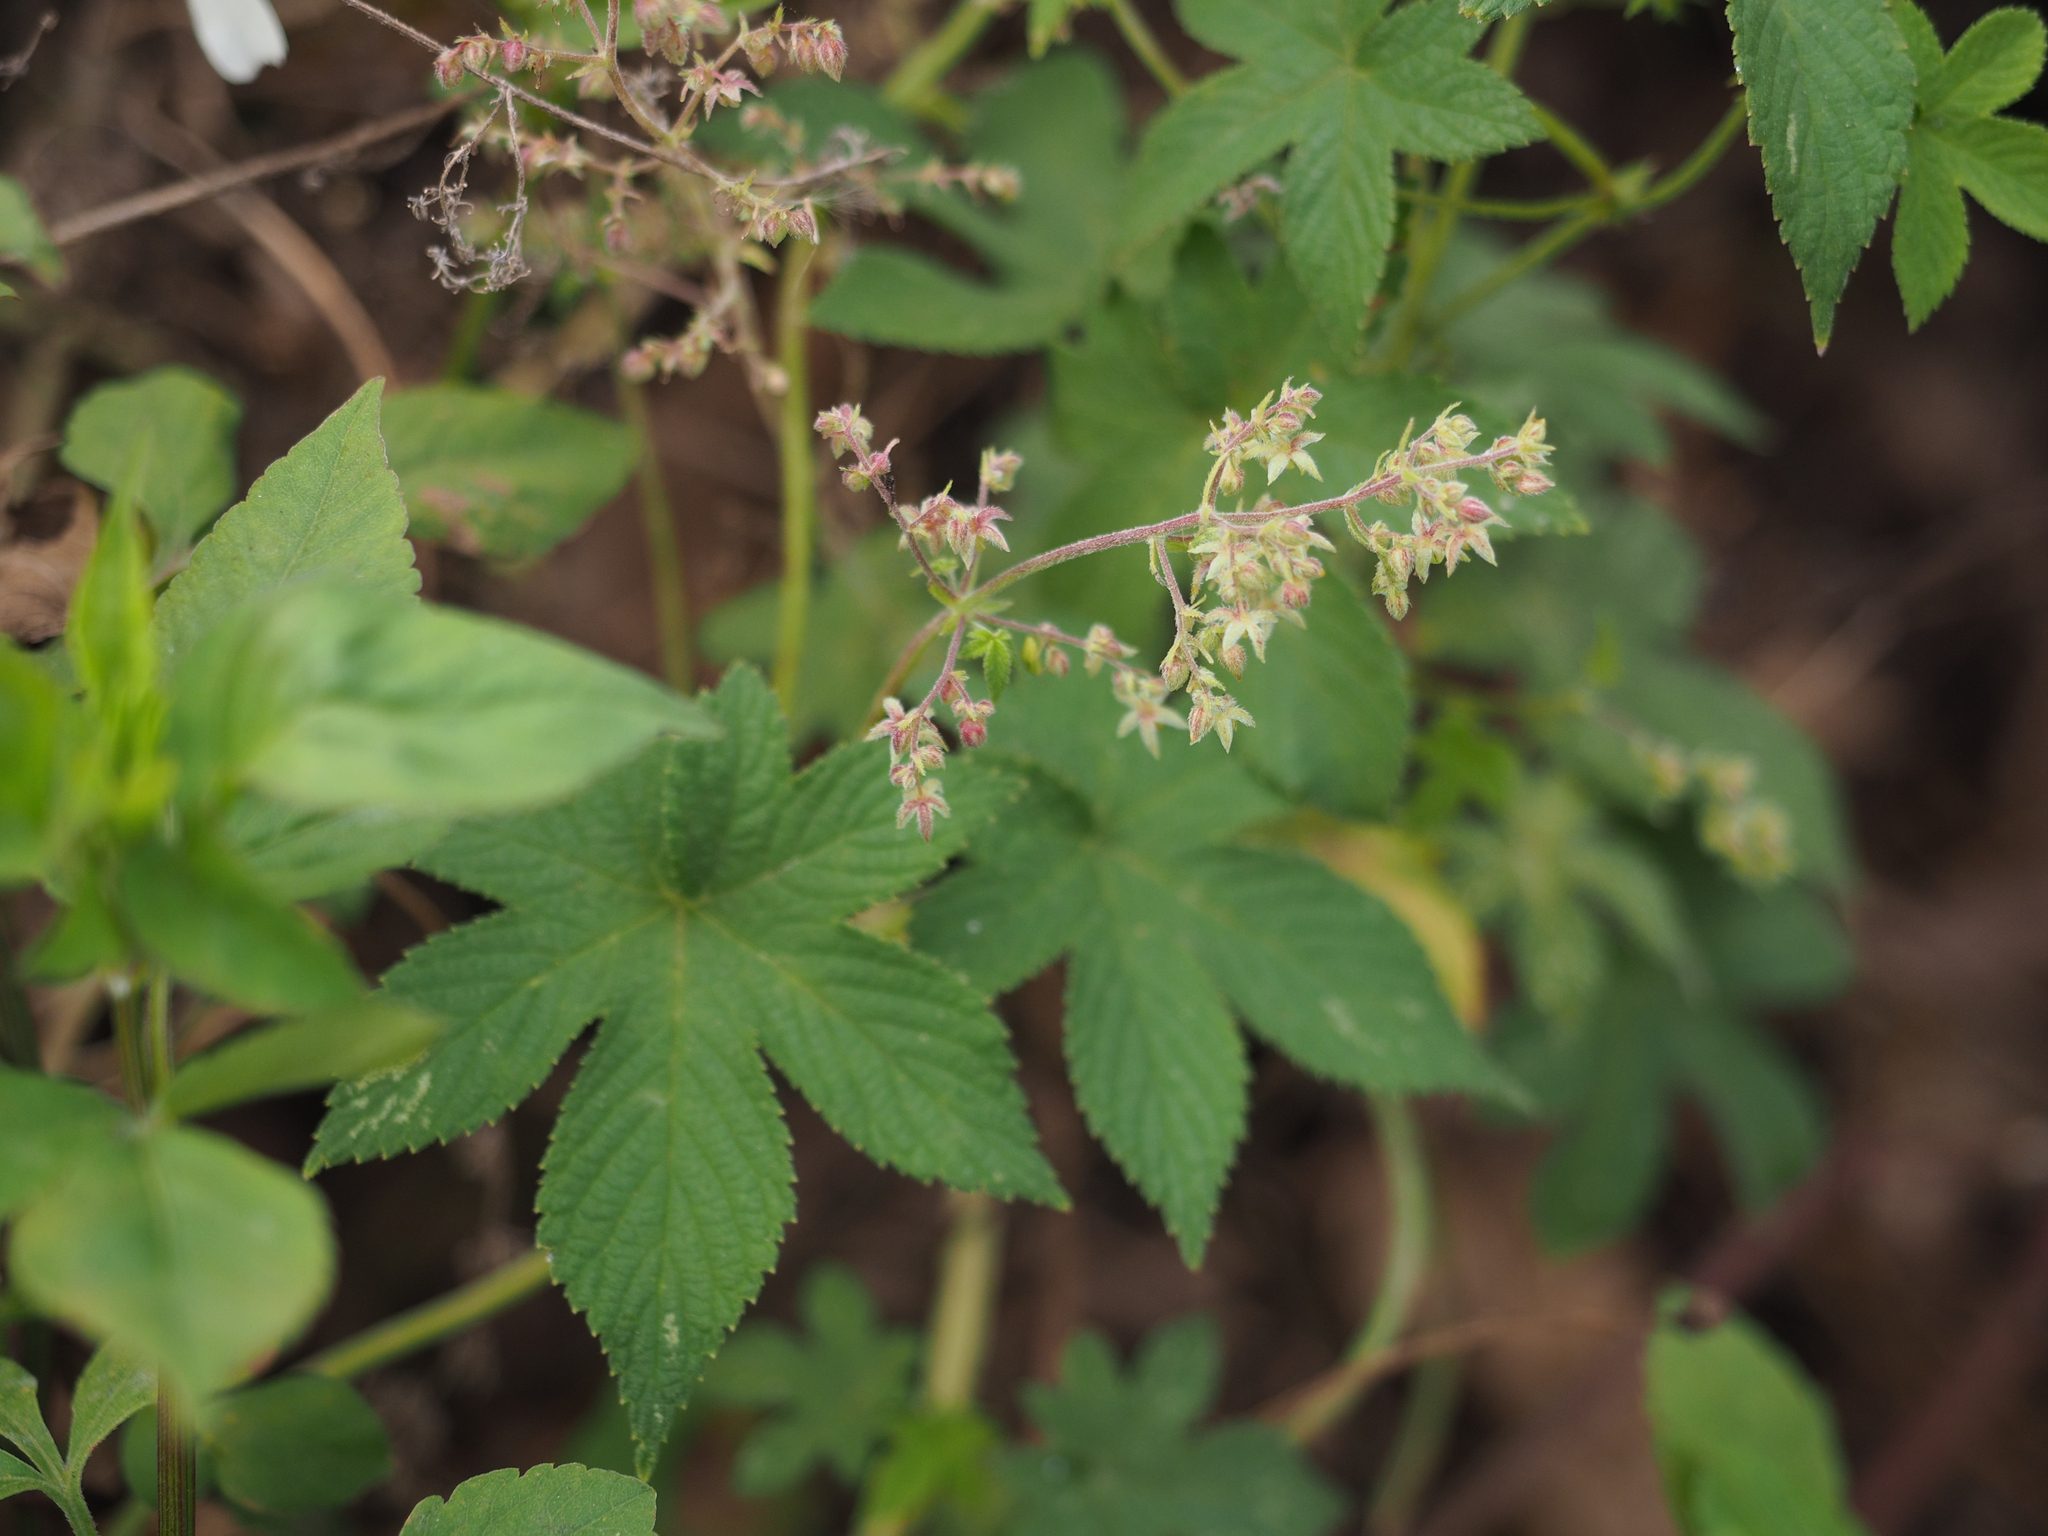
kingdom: Plantae
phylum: Tracheophyta
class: Magnoliopsida
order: Rosales
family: Cannabaceae
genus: Humulus
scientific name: Humulus scandens
